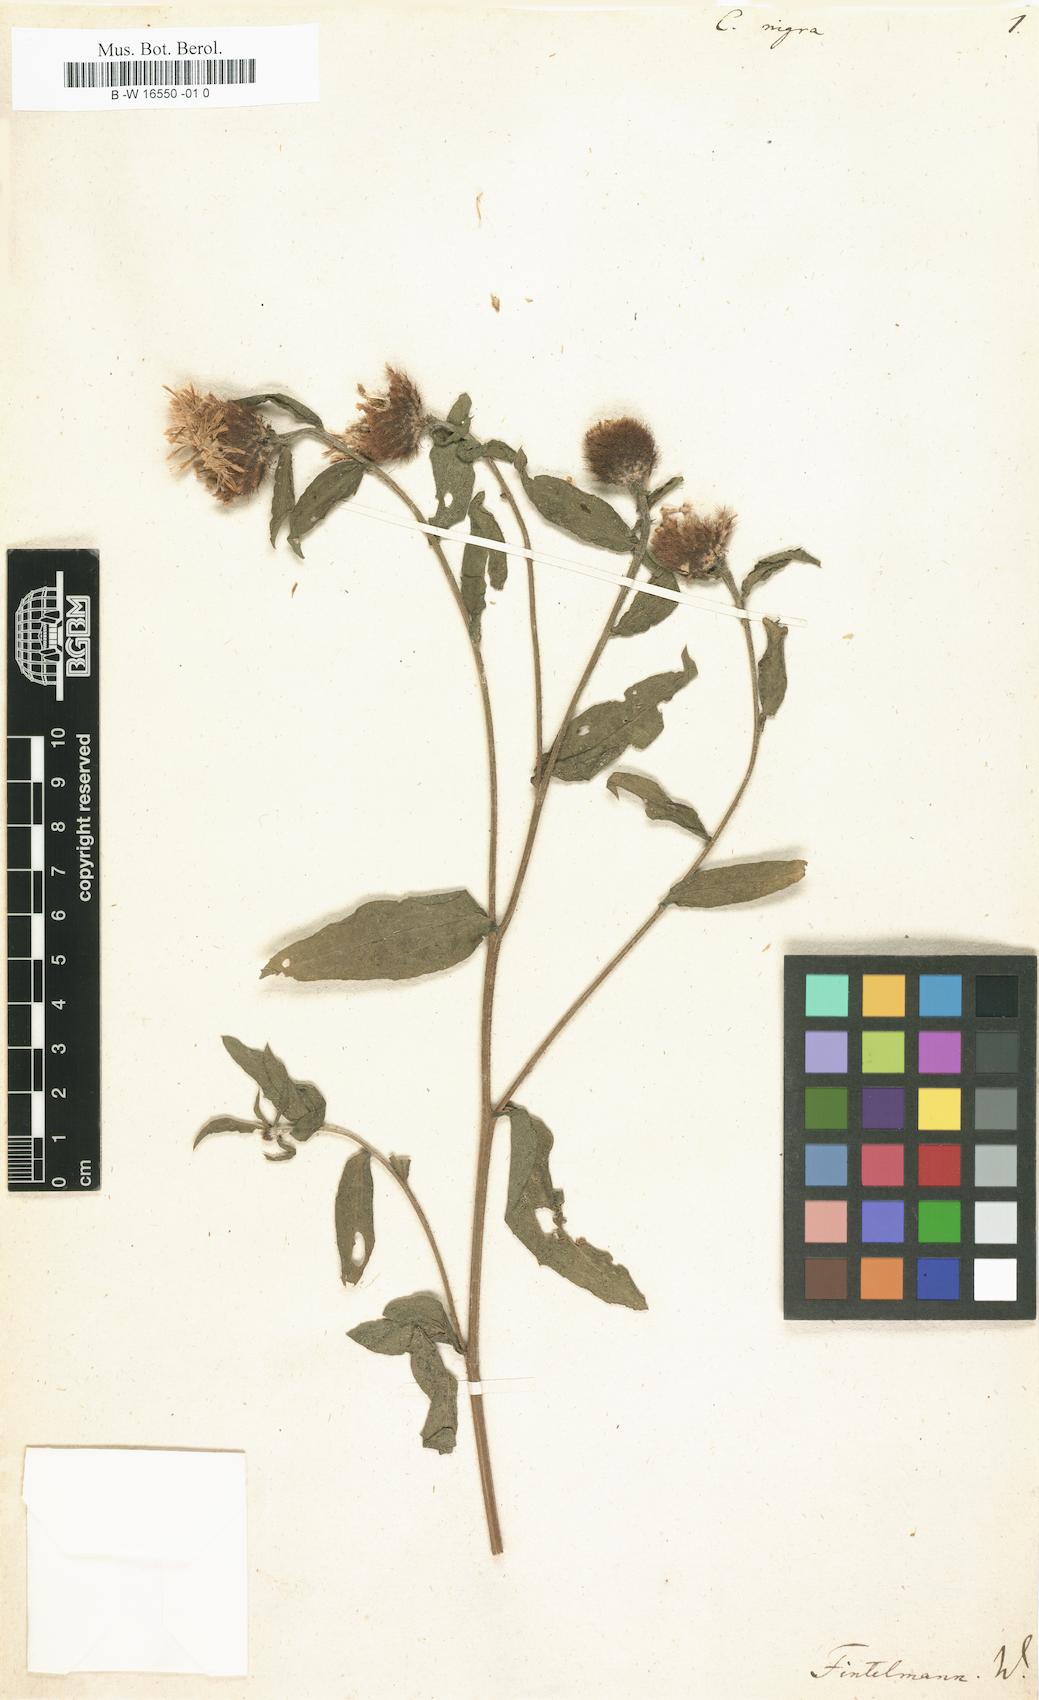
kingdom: Plantae
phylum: Tracheophyta
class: Magnoliopsida
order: Asterales
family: Asteraceae
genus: Centaurea
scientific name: Centaurea nigra
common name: Lesser knapweed
